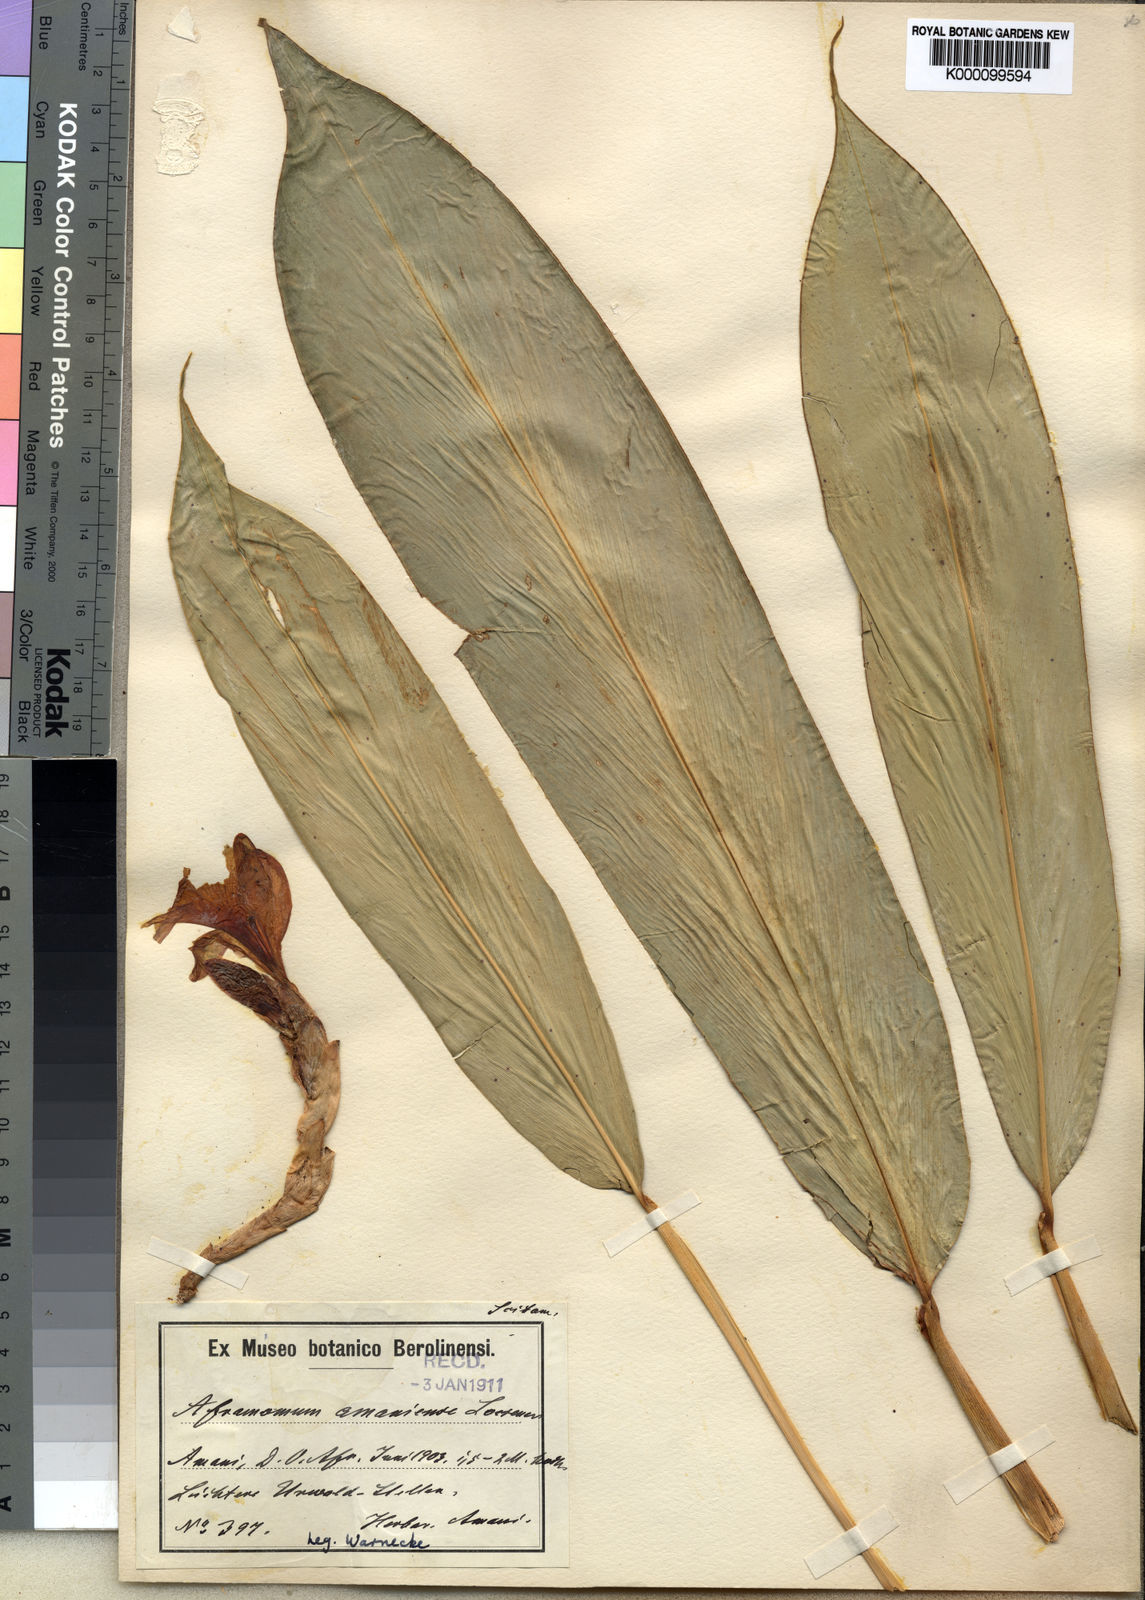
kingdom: Plantae
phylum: Tracheophyta
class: Liliopsida
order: Zingiberales
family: Zingiberaceae
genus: Aframomum
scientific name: Aframomum limbatum
